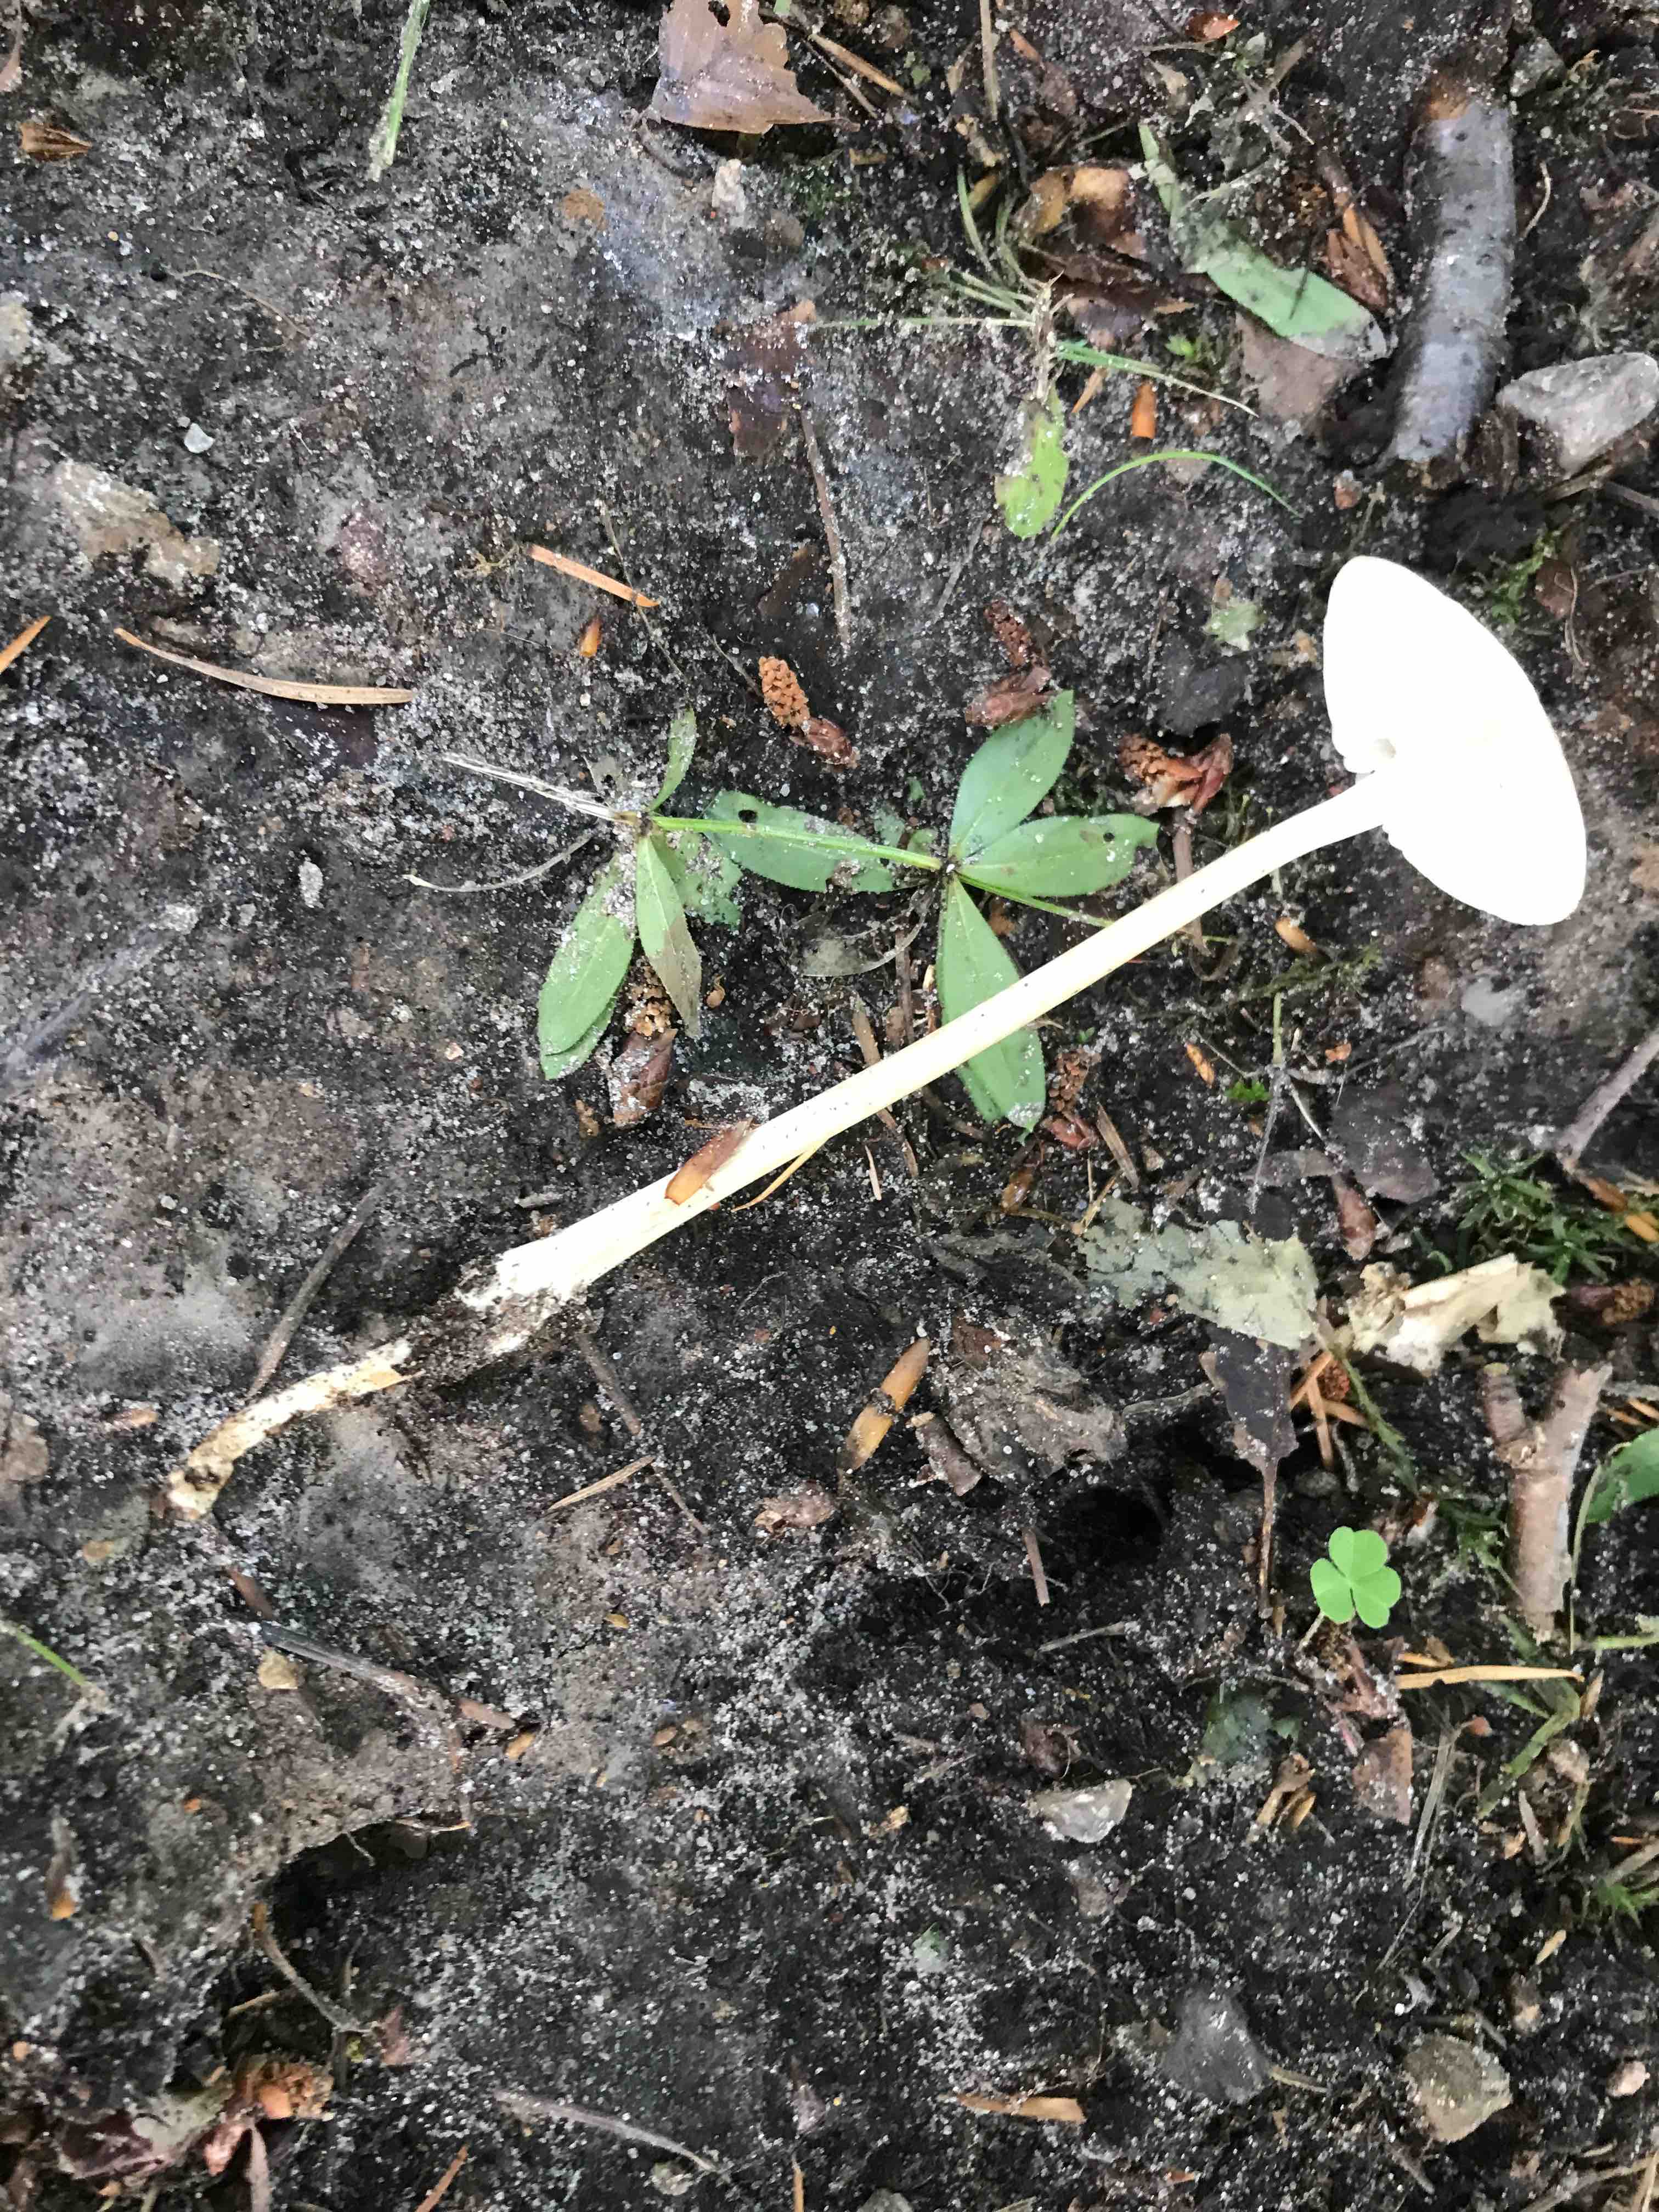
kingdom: Fungi
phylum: Basidiomycota
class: Agaricomycetes
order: Agaricales
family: Physalacriaceae
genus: Hymenopellis
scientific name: Hymenopellis radicata
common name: almindelig pælerodshat
